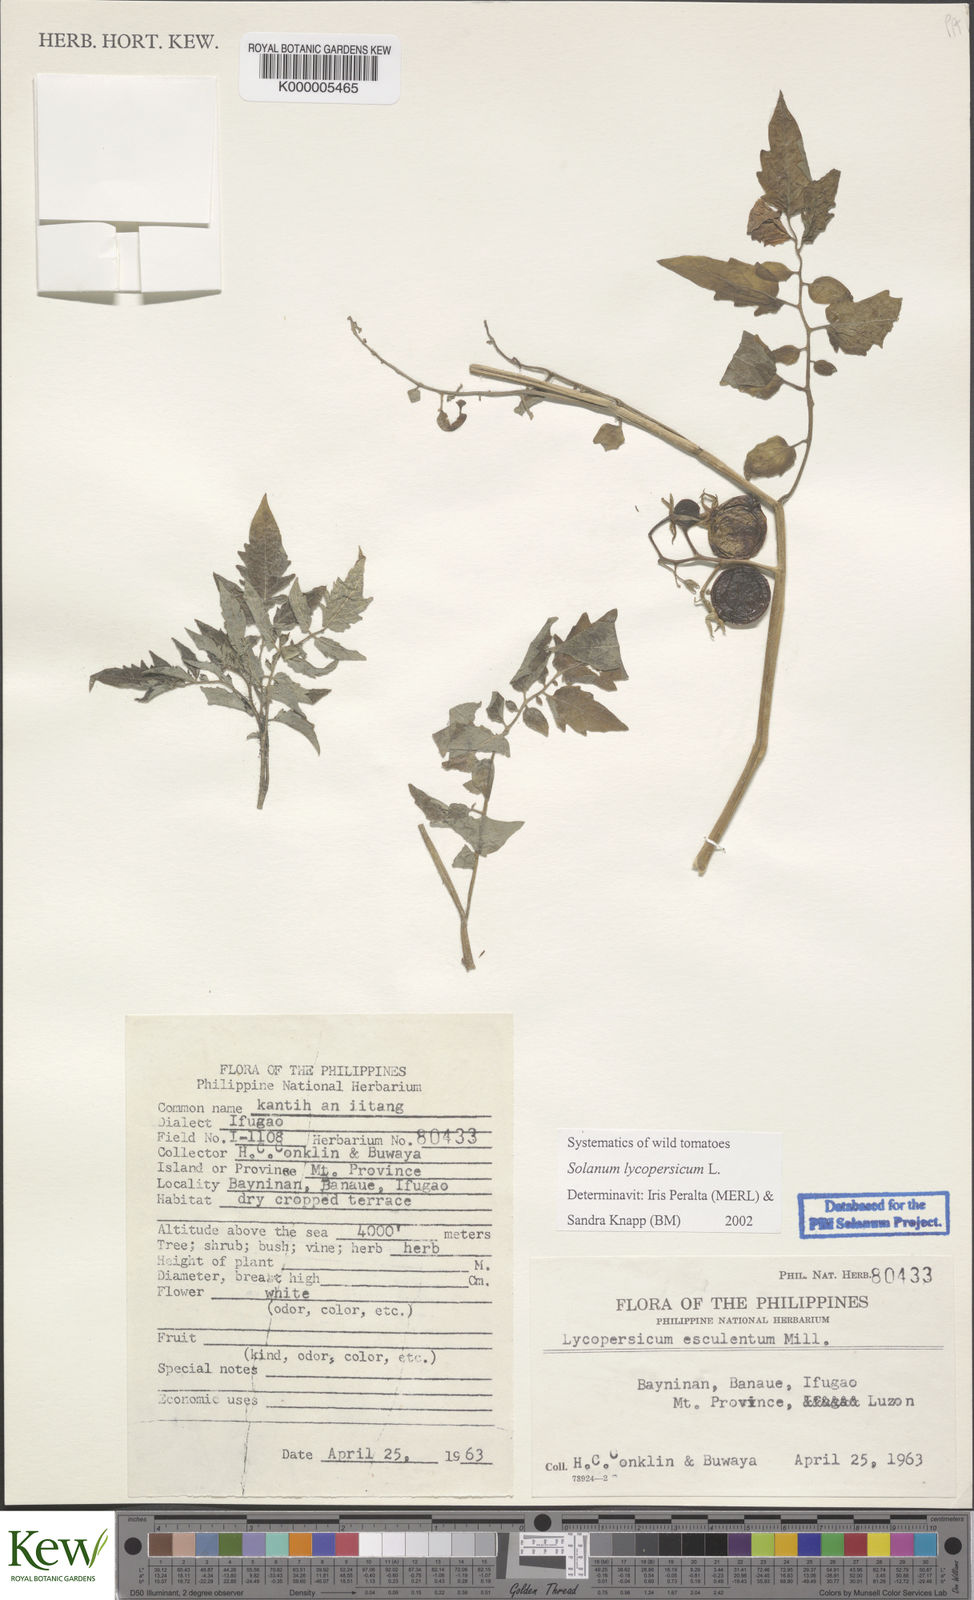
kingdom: Plantae
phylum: Tracheophyta
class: Magnoliopsida
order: Solanales
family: Solanaceae
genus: Solanum
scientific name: Solanum lycopersicum
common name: Garden tomato
